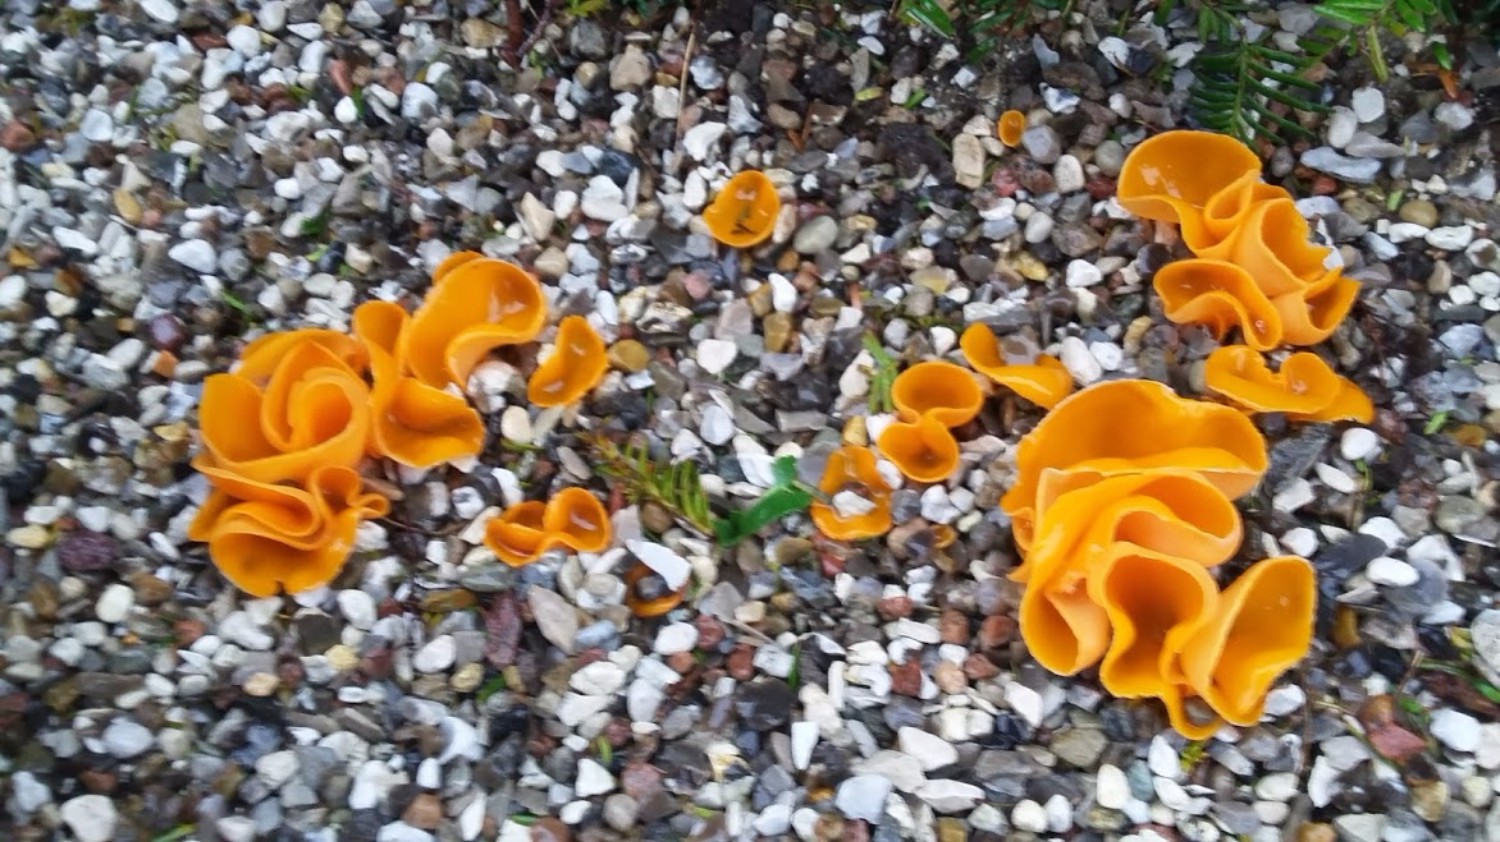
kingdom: Fungi
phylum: Ascomycota
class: Pezizomycetes
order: Pezizales
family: Pyronemataceae
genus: Aleuria
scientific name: Aleuria aurantia
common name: almindelig orangebæger
